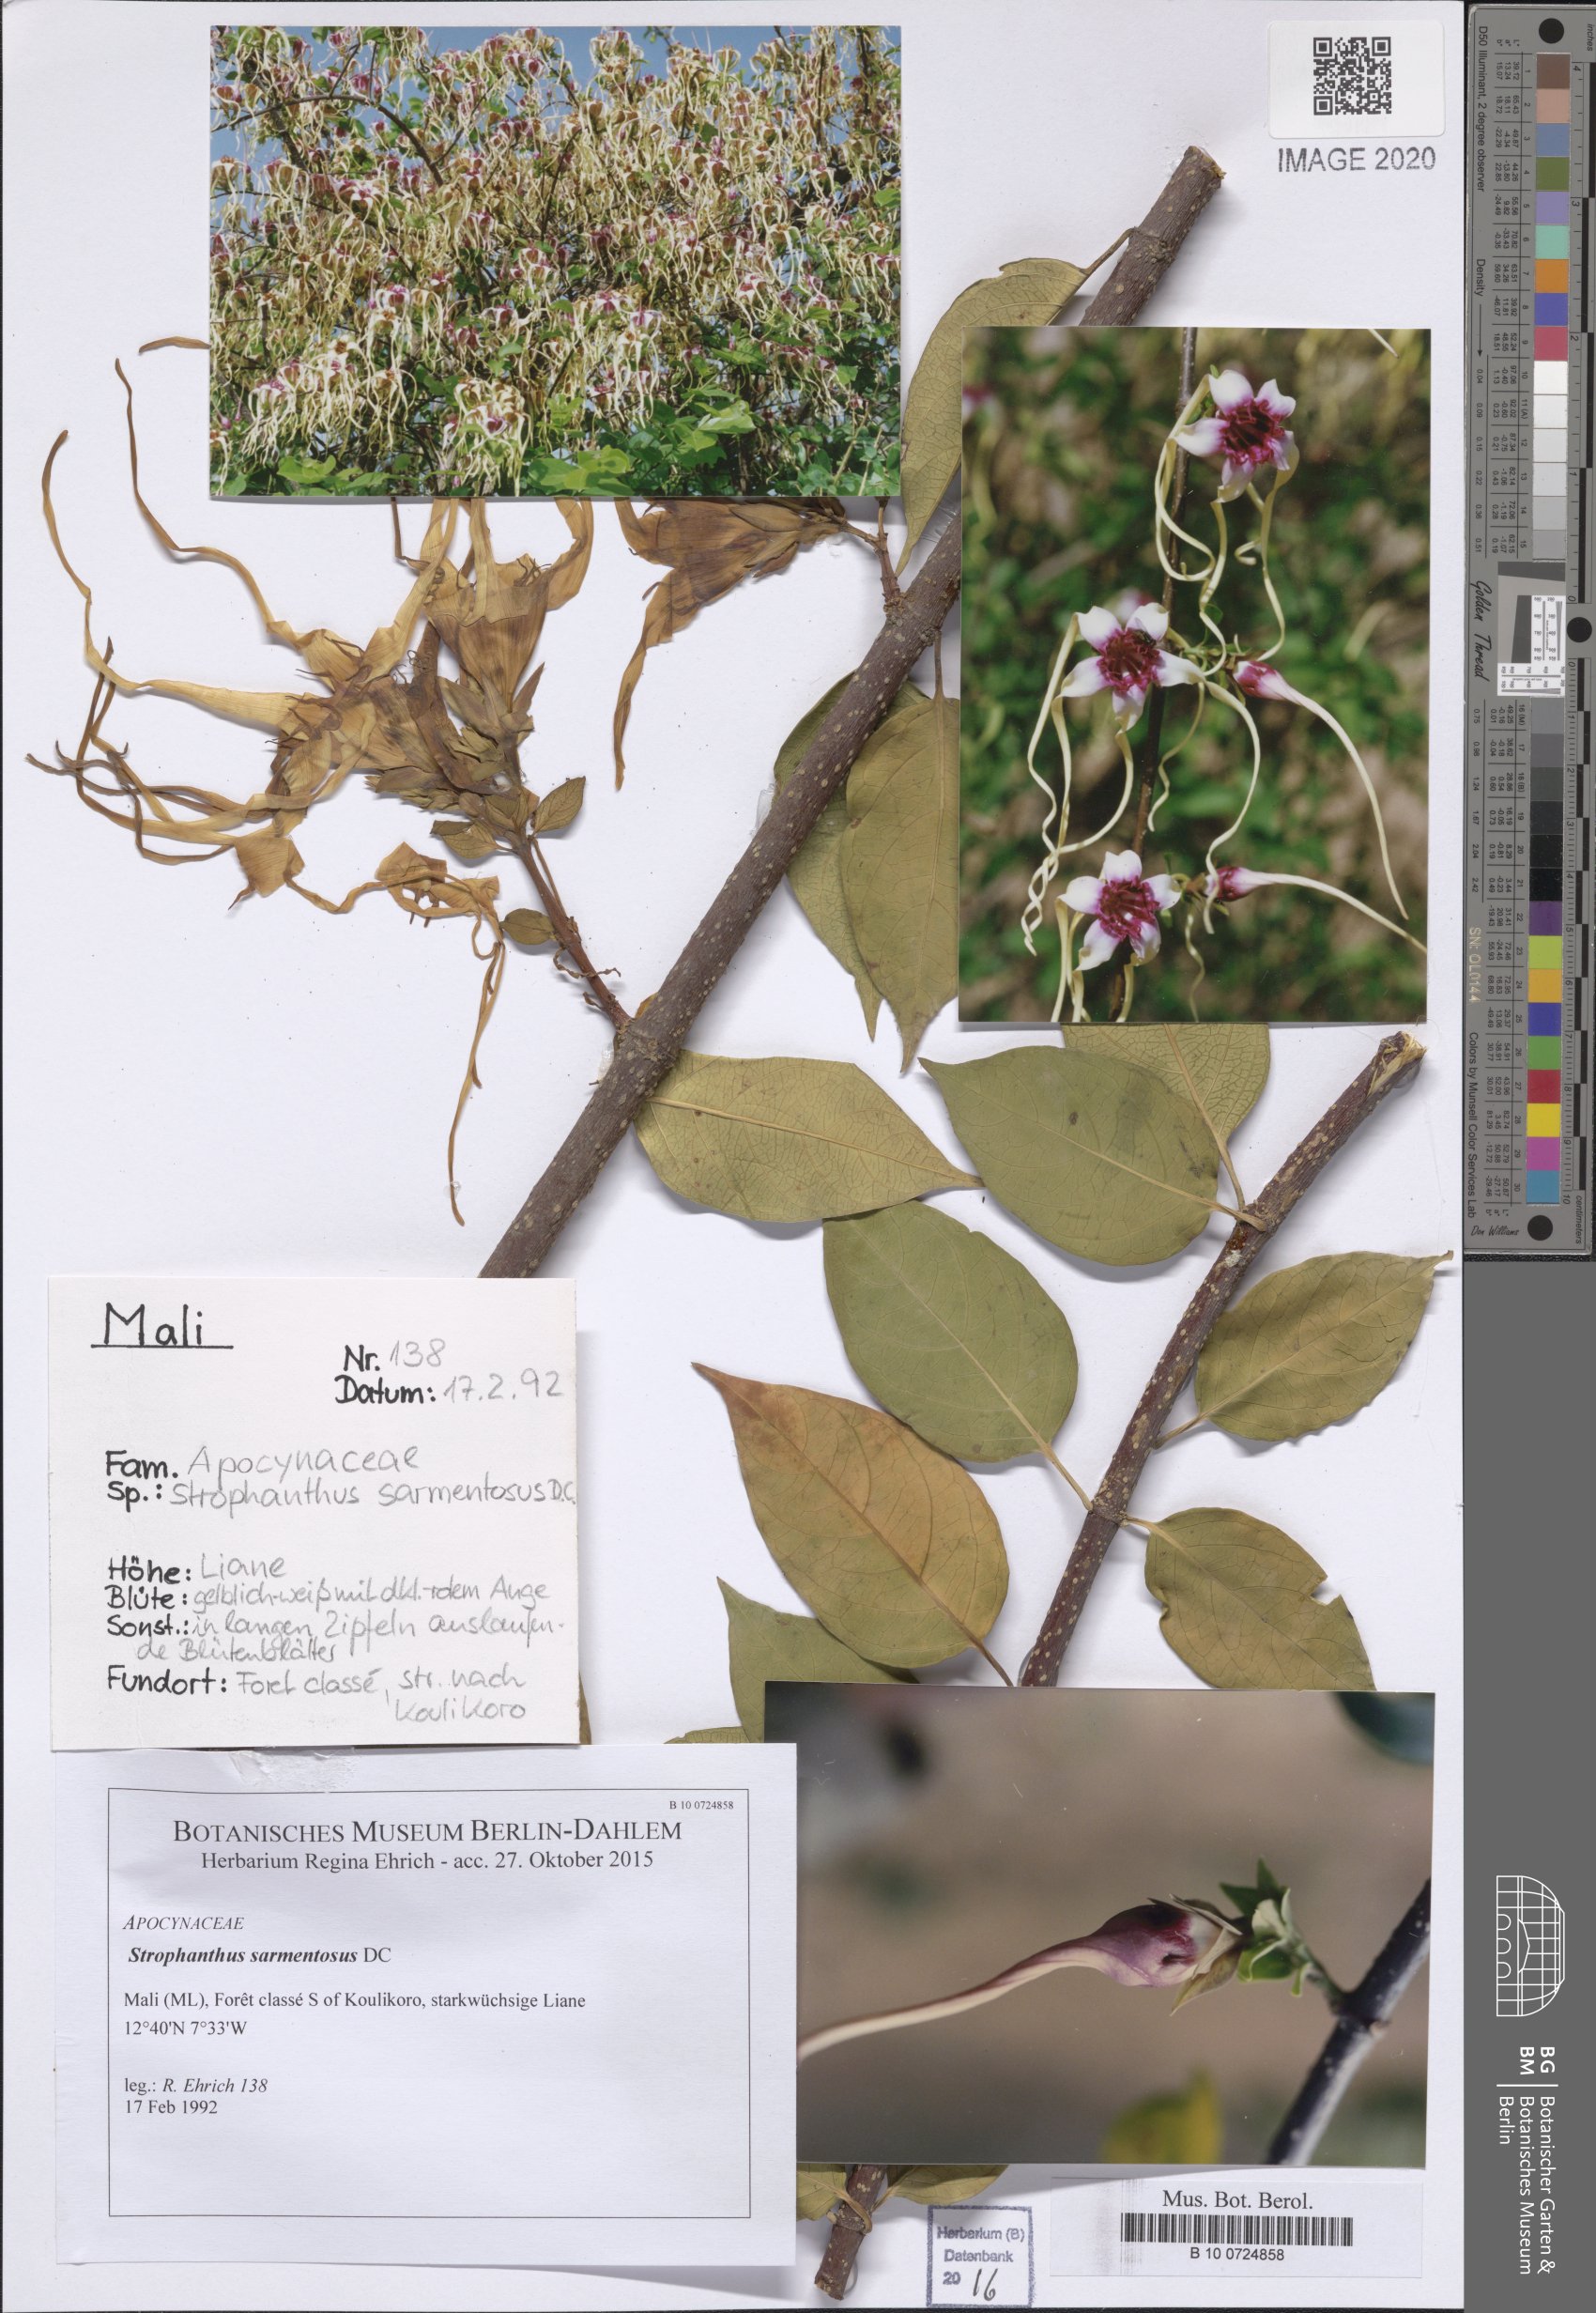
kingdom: Plantae
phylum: Tracheophyta
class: Magnoliopsida
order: Gentianales
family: Apocynaceae
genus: Strophanthus
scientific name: Strophanthus sarmentosus
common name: Poison arrowvine
